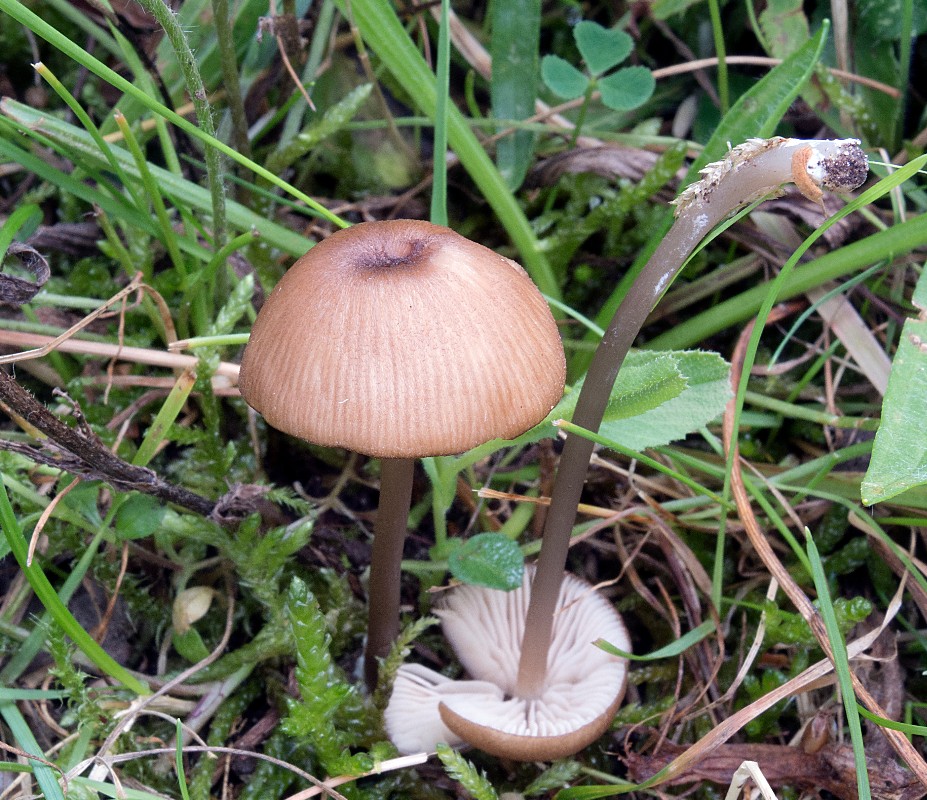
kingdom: Fungi
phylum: Basidiomycota
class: Agaricomycetes
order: Agaricales
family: Entolomataceae
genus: Entoloma
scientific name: Entoloma exile
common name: rødplettet rødblad
